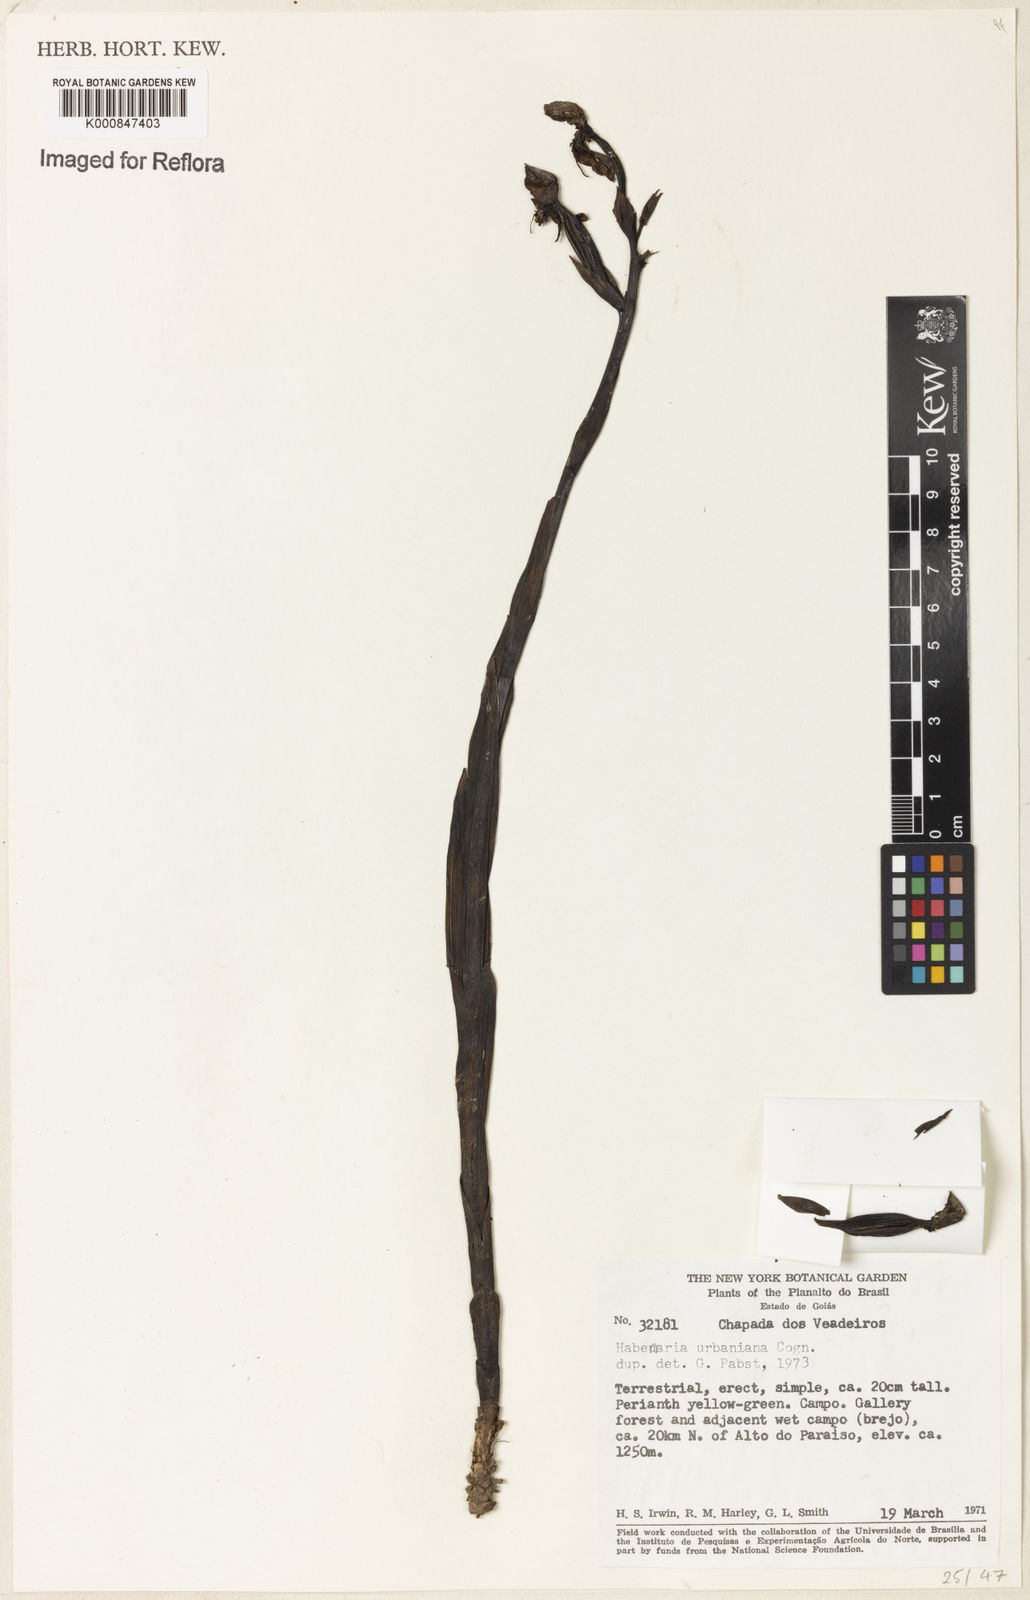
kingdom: Plantae
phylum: Tracheophyta
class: Liliopsida
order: Asparagales
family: Orchidaceae
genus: Habenaria
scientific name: Habenaria urbaniana
